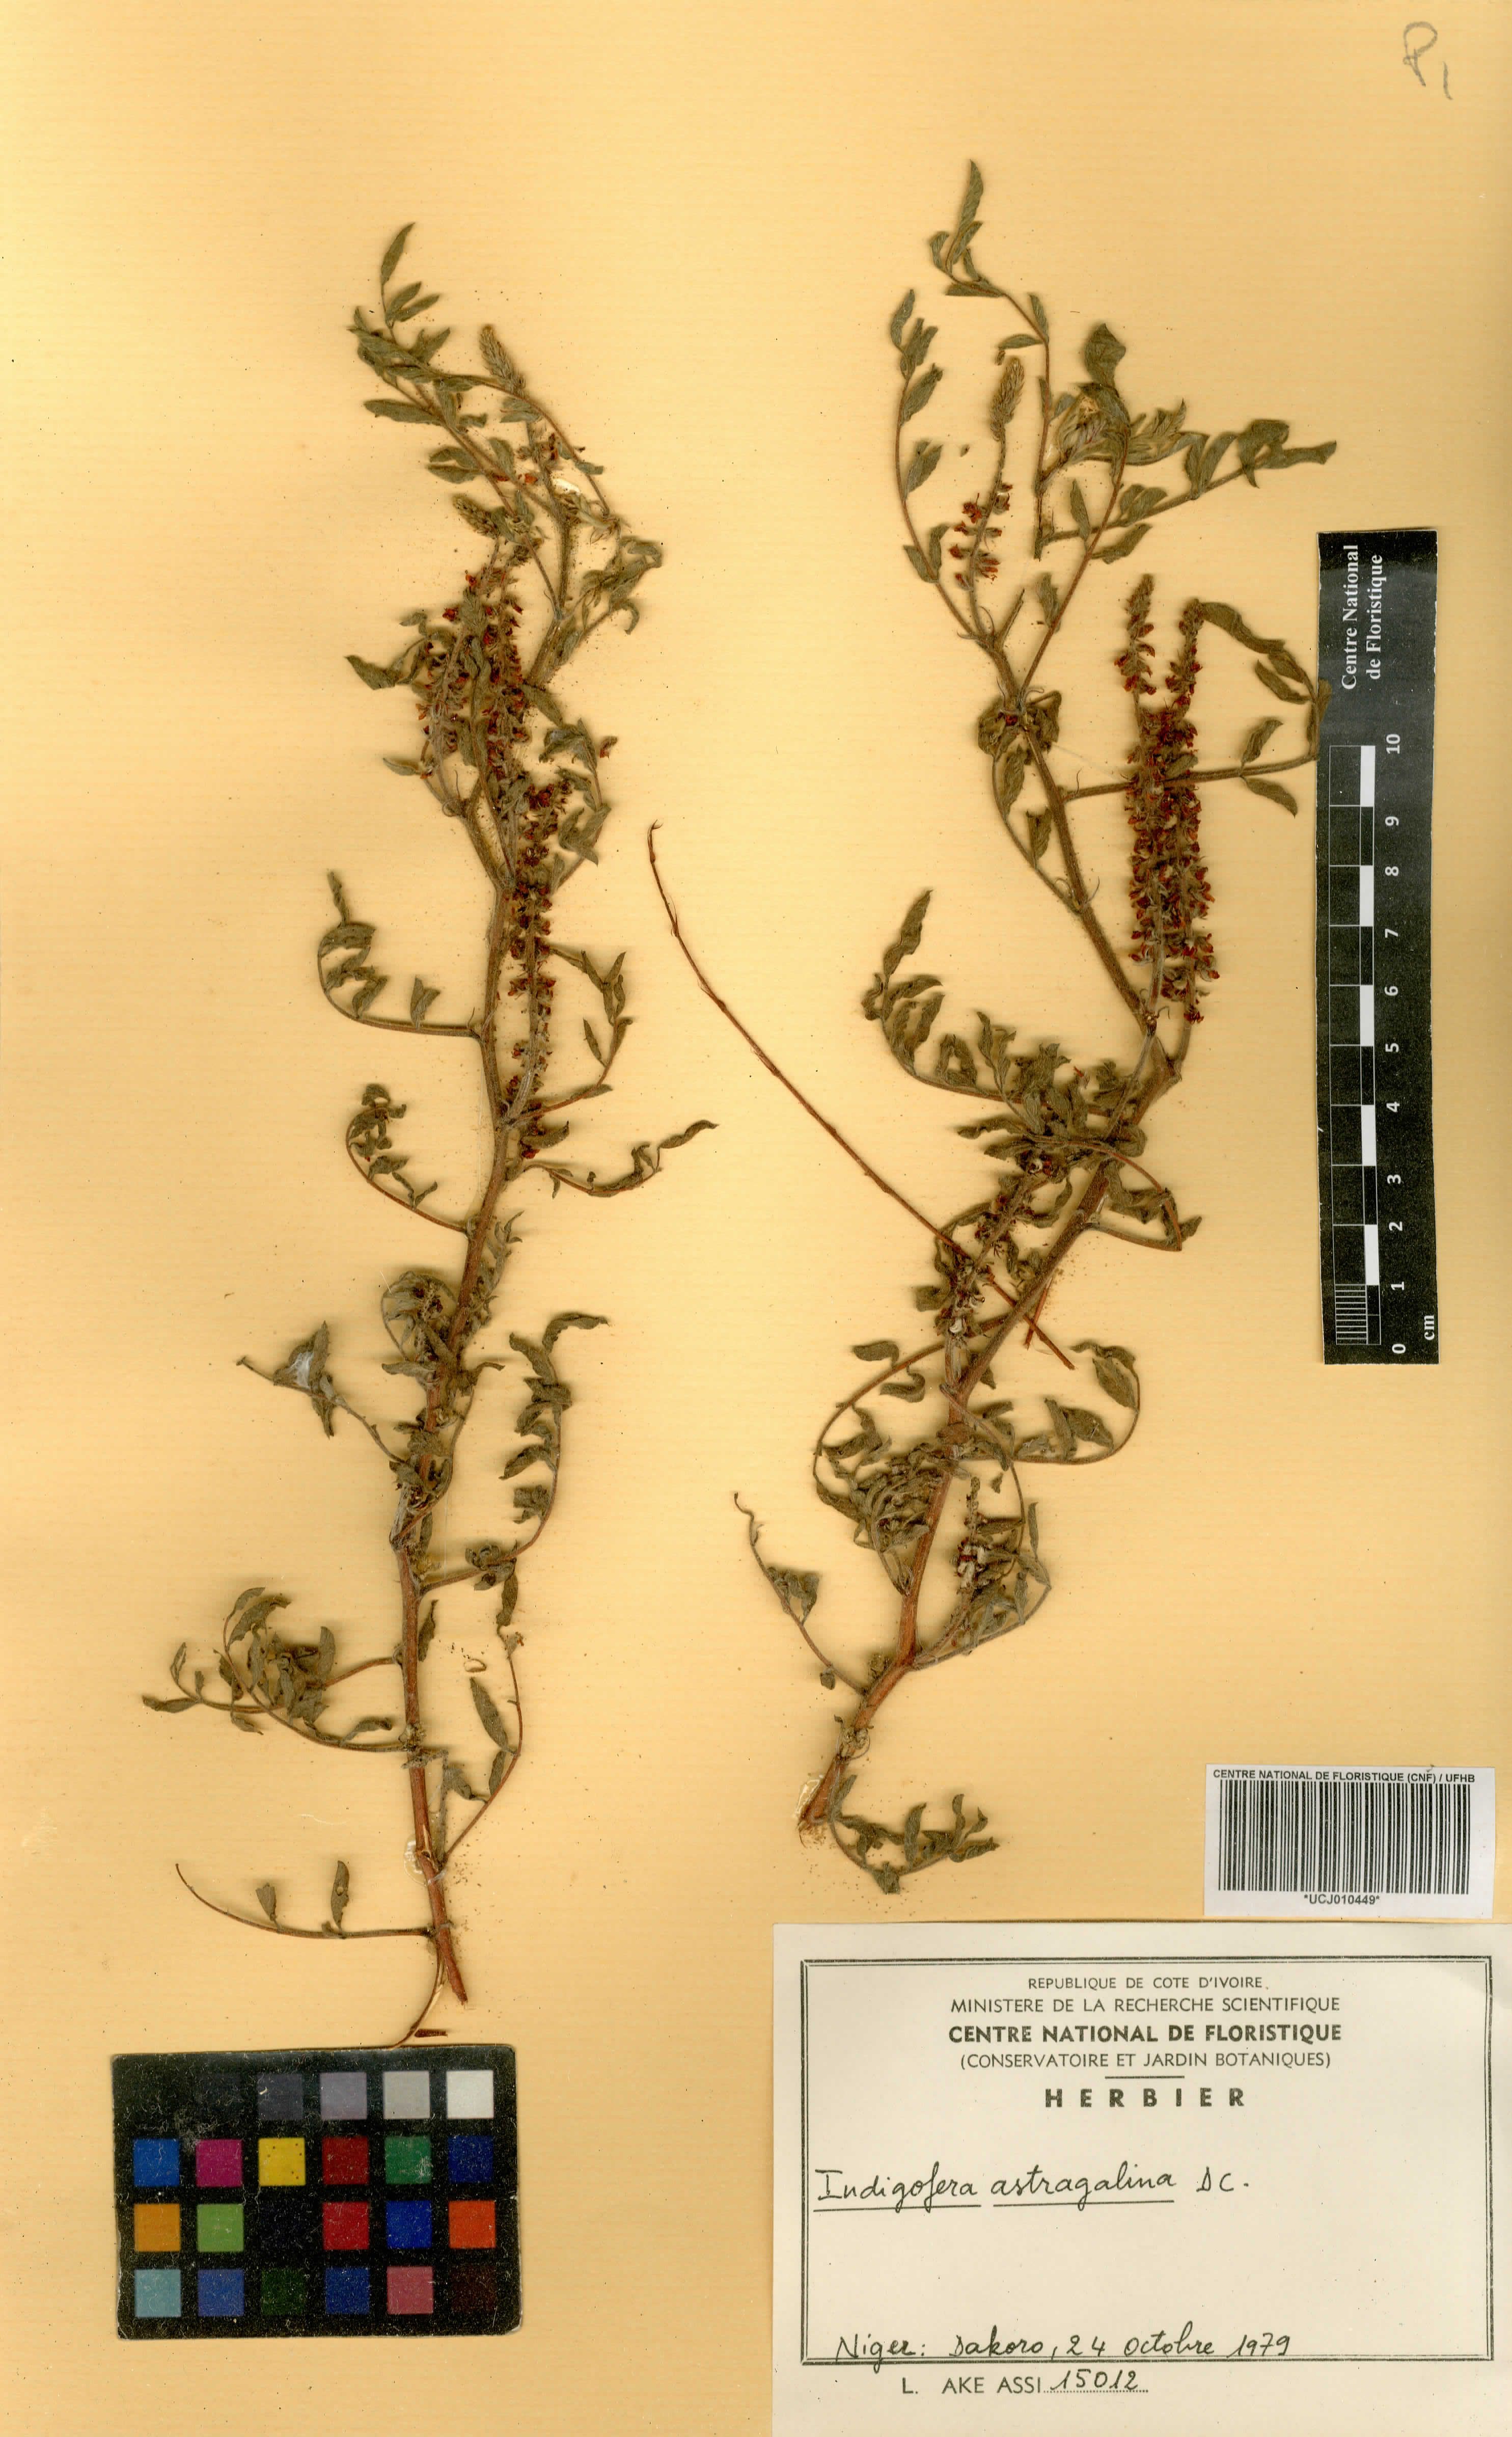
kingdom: Plantae
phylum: Tracheophyta
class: Magnoliopsida
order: Fabales
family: Fabaceae
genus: Indigofera
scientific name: Indigofera astragalina
